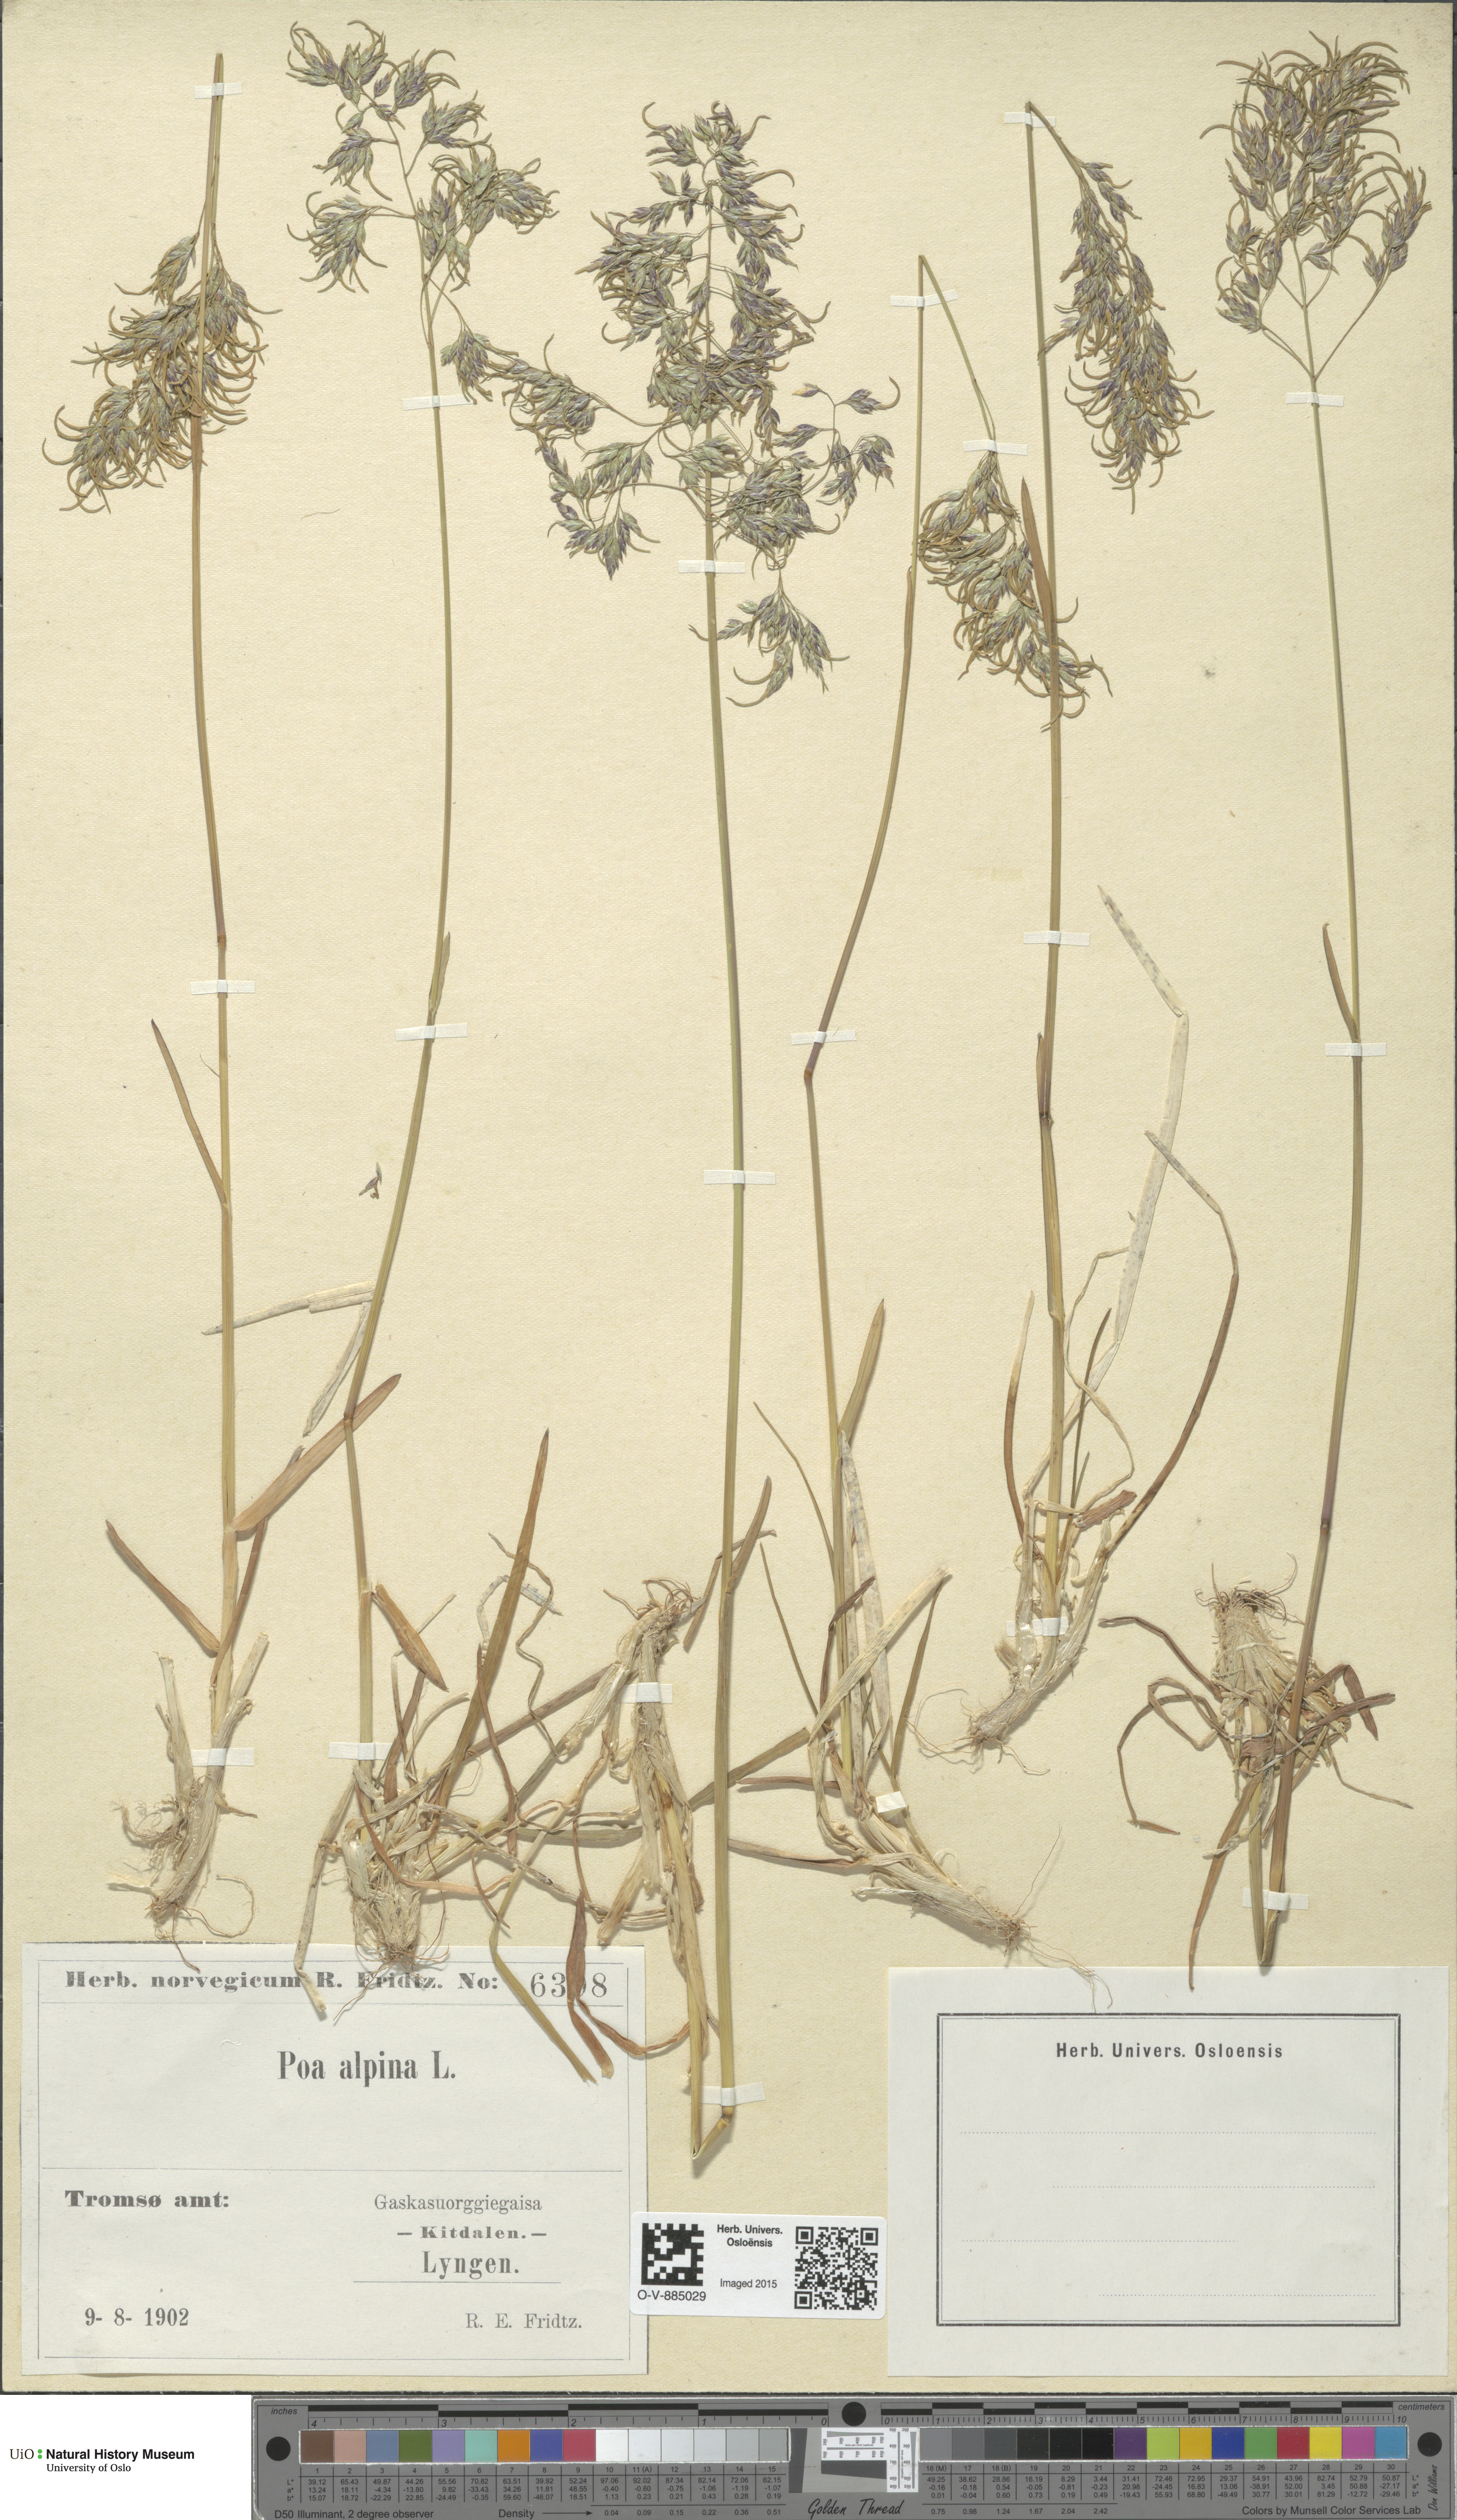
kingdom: Plantae
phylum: Tracheophyta
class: Liliopsida
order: Poales
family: Poaceae
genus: Poa
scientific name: Poa alpina
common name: Alpine bluegrass
